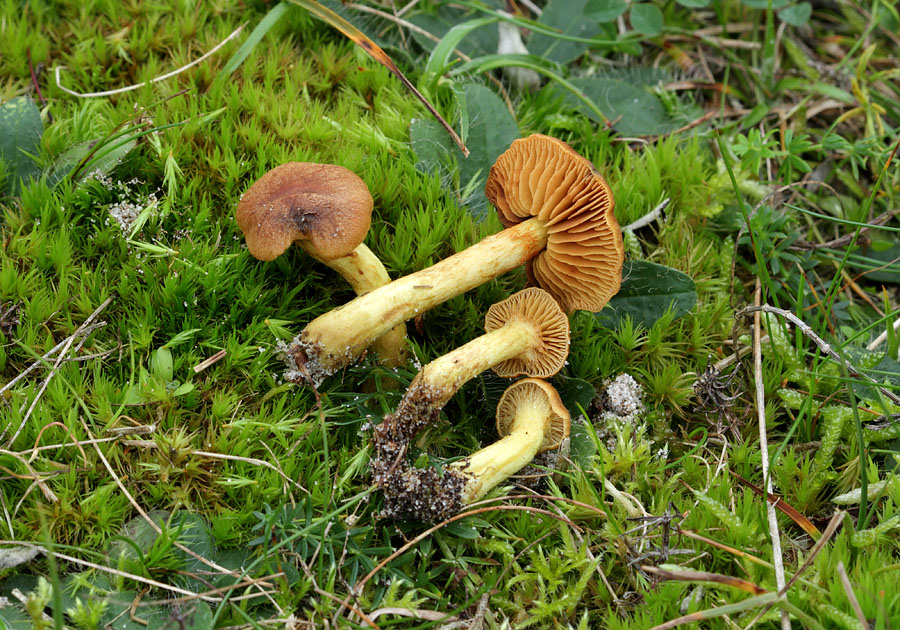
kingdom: Fungi
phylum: Basidiomycota
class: Agaricomycetes
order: Agaricales
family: Cortinariaceae
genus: Cortinarius
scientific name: Cortinarius pratensis
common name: hede-slørhat
